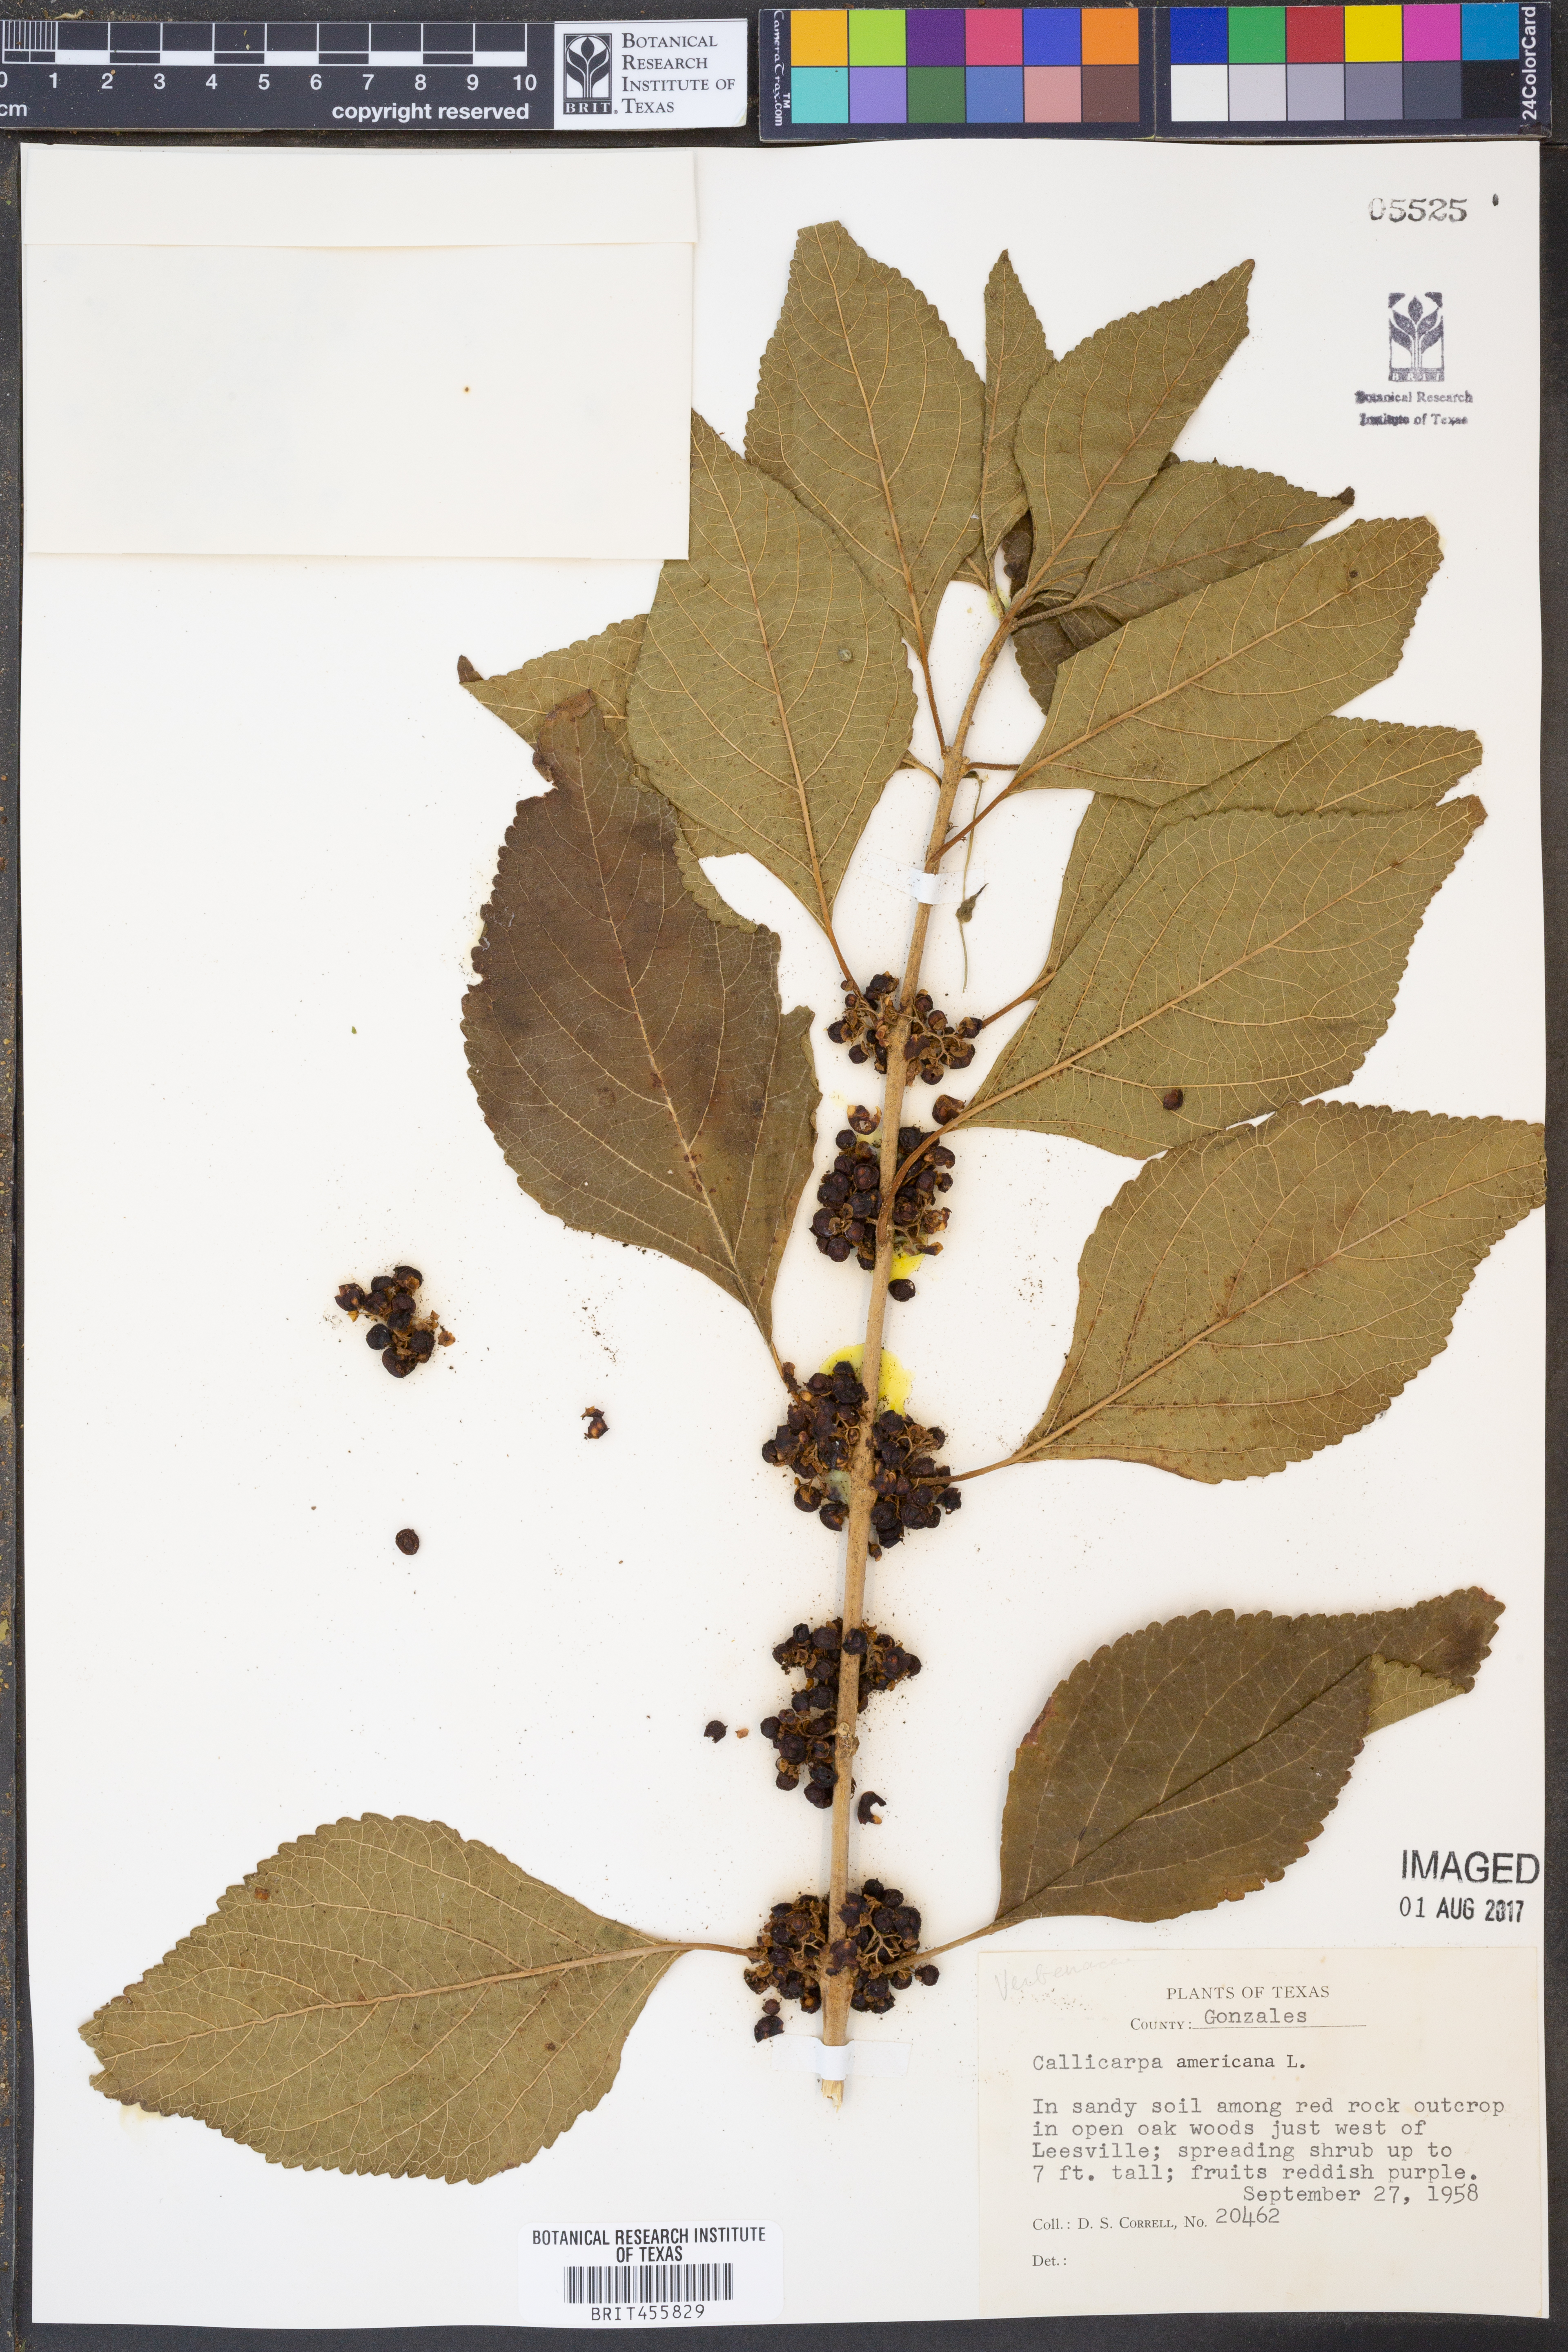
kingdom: Plantae
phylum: Tracheophyta
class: Magnoliopsida
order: Lamiales
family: Lamiaceae
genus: Callicarpa
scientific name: Callicarpa americana
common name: American beautyberry
